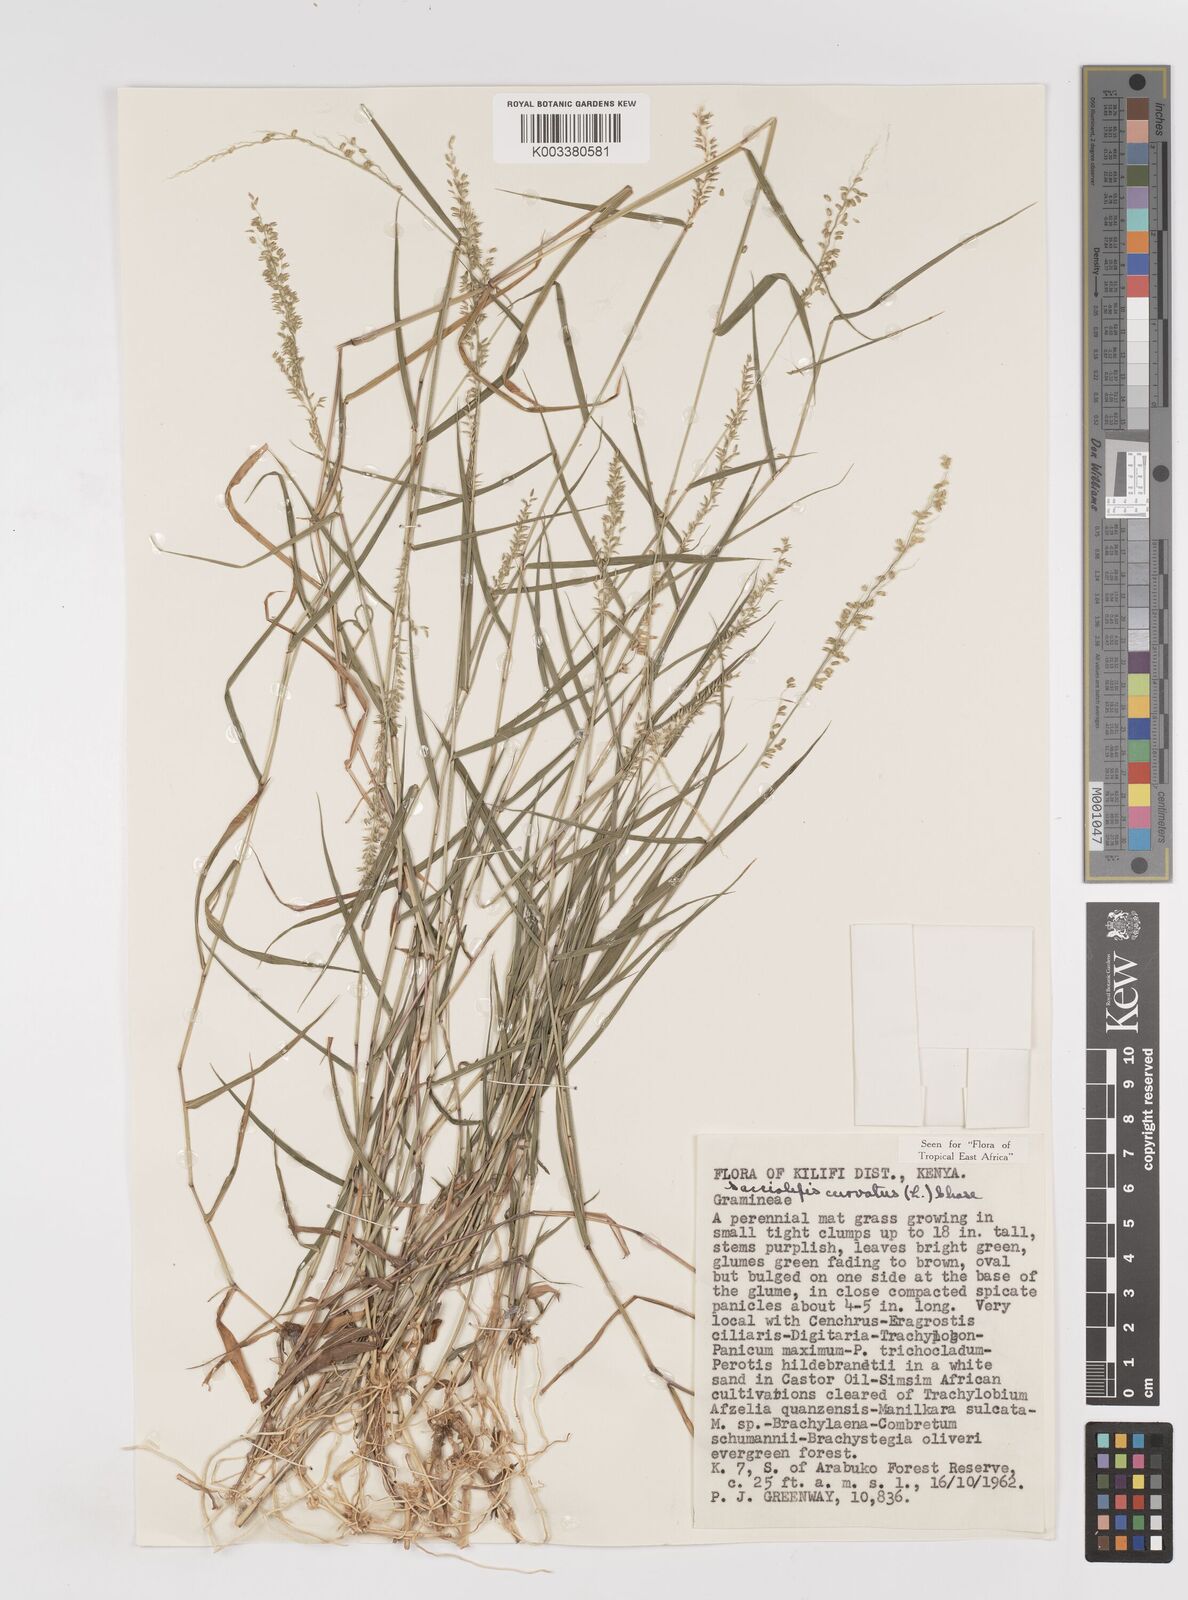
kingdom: Plantae
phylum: Tracheophyta
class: Liliopsida
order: Poales
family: Poaceae
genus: Sacciolepis
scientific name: Sacciolepis curvata
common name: Forest hood grass
